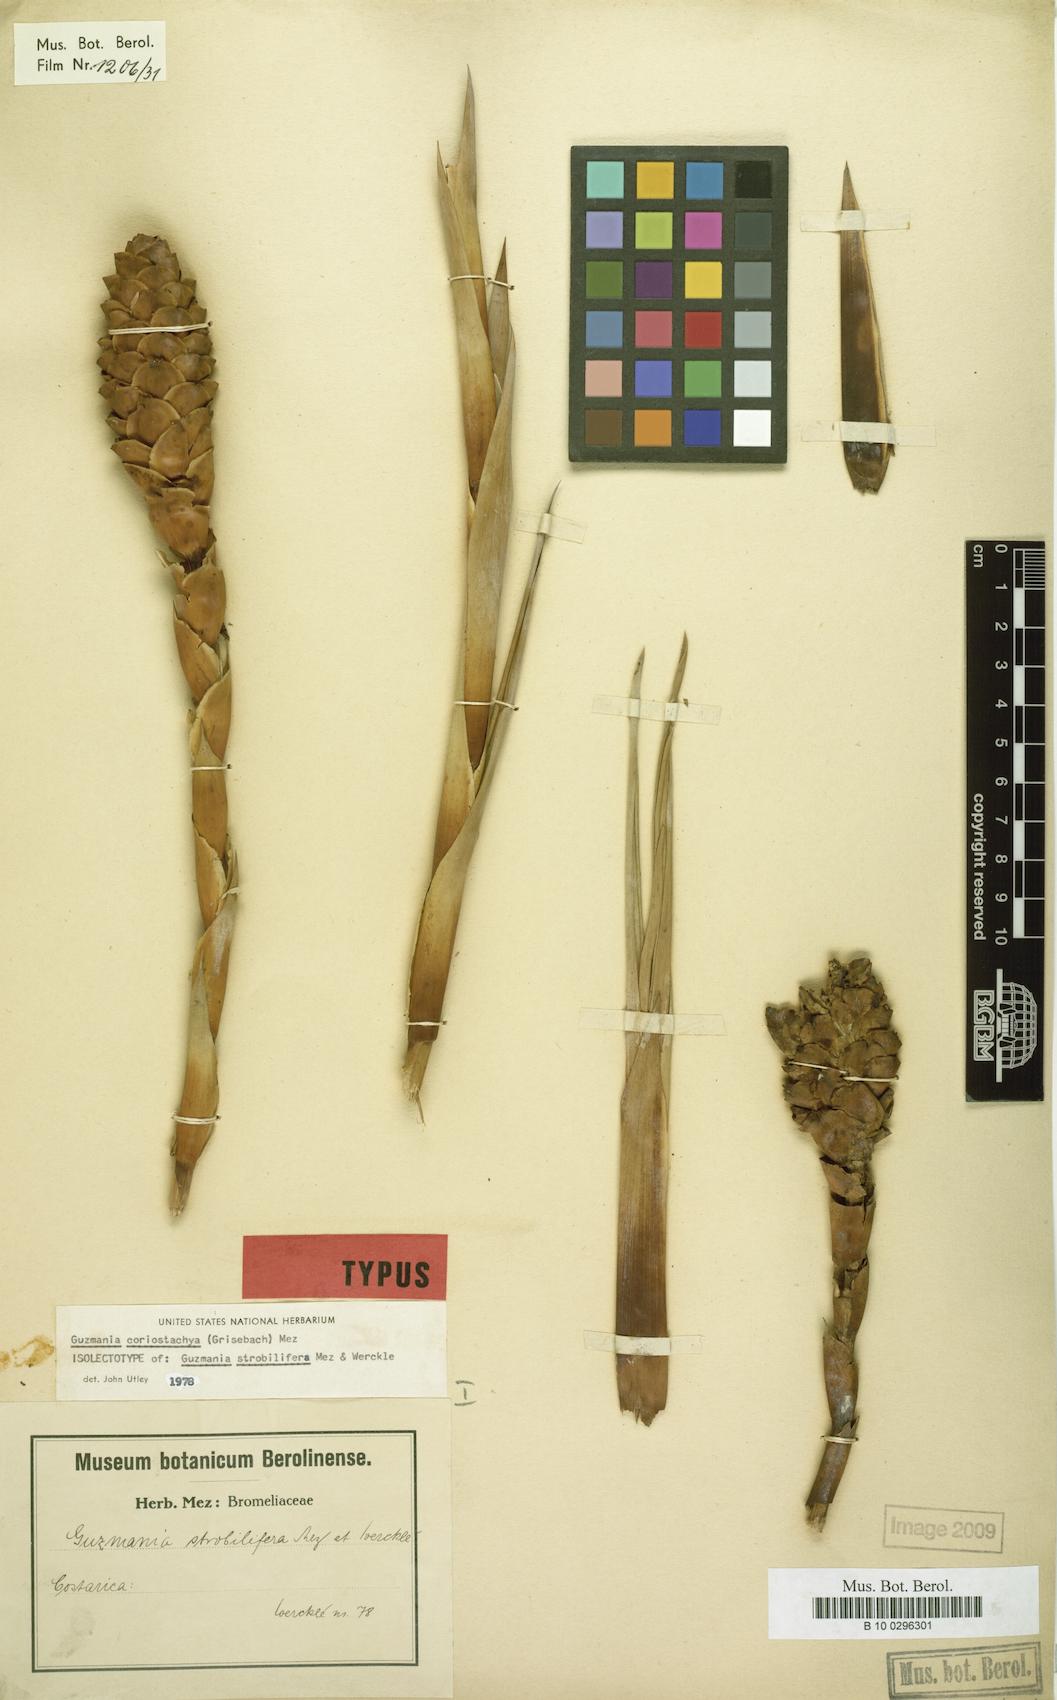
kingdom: Plantae
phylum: Tracheophyta
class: Liliopsida
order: Poales
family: Bromeliaceae
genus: Guzmania
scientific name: Guzmania coriostachya
